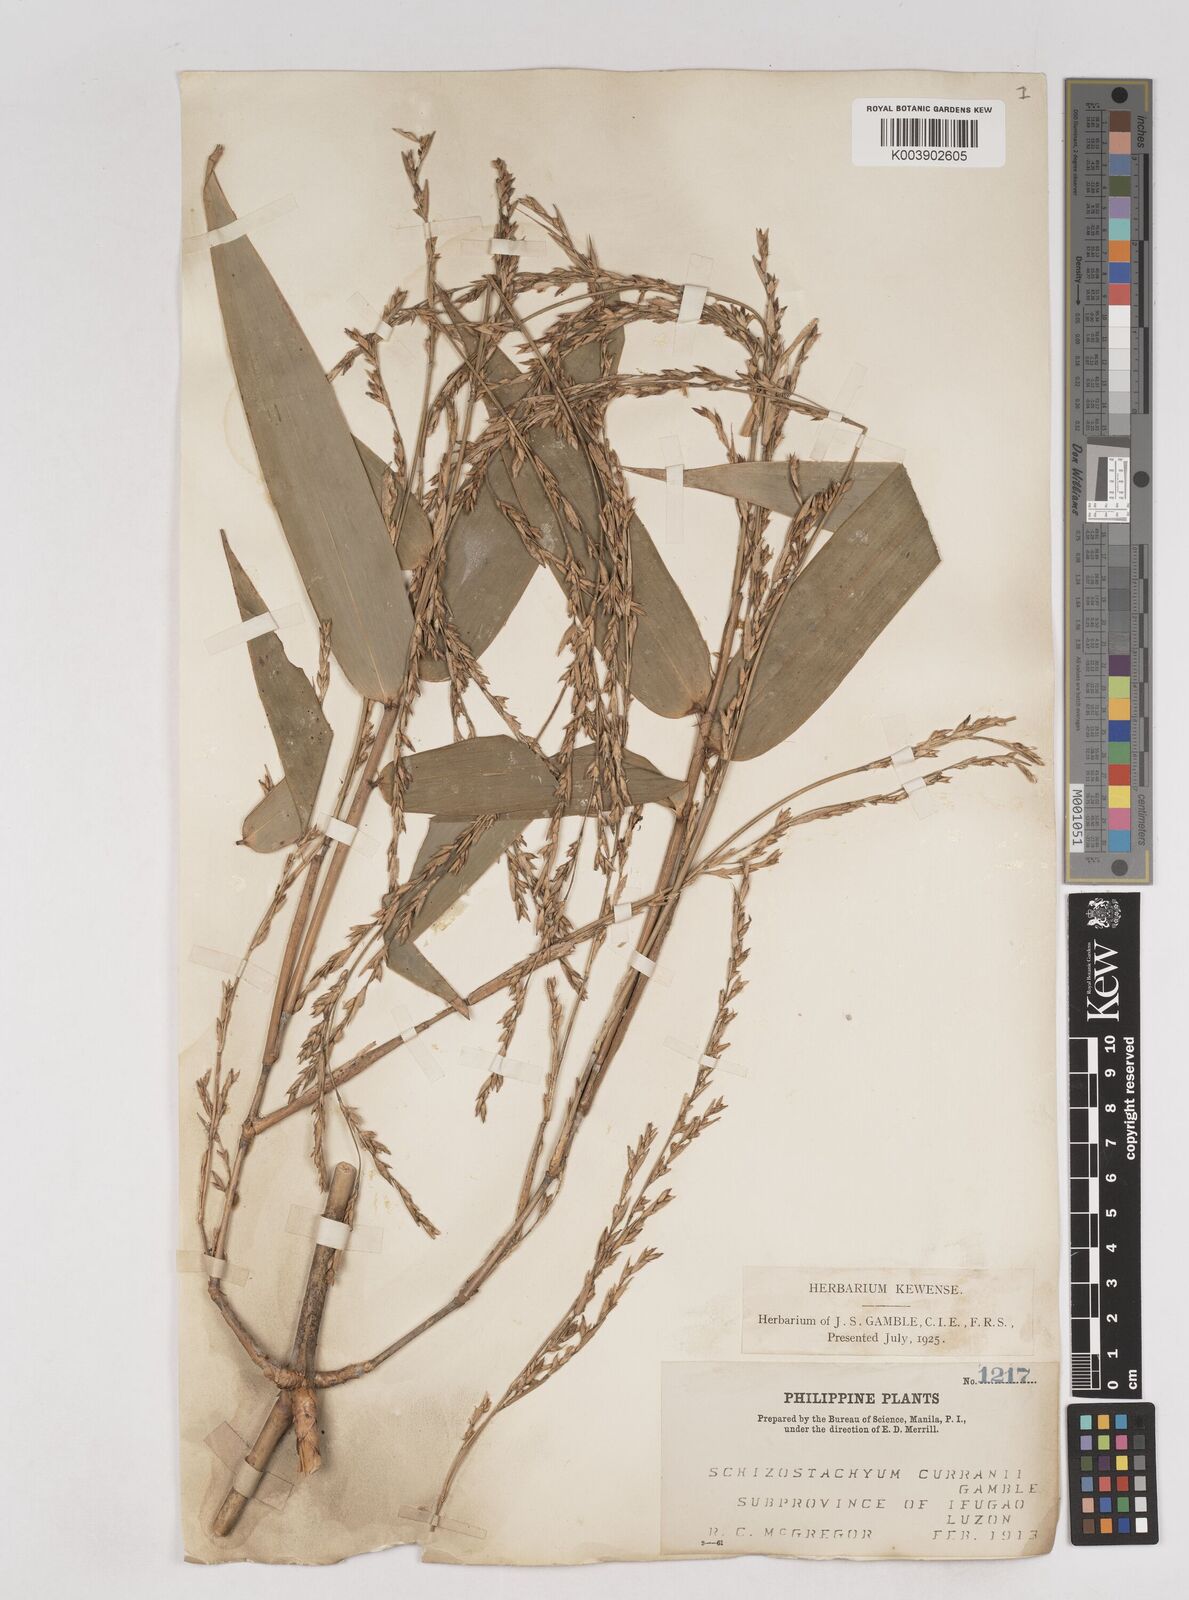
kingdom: Plantae
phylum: Tracheophyta
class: Liliopsida
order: Poales
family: Poaceae
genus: Schizostachyum
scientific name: Schizostachyum curranii
